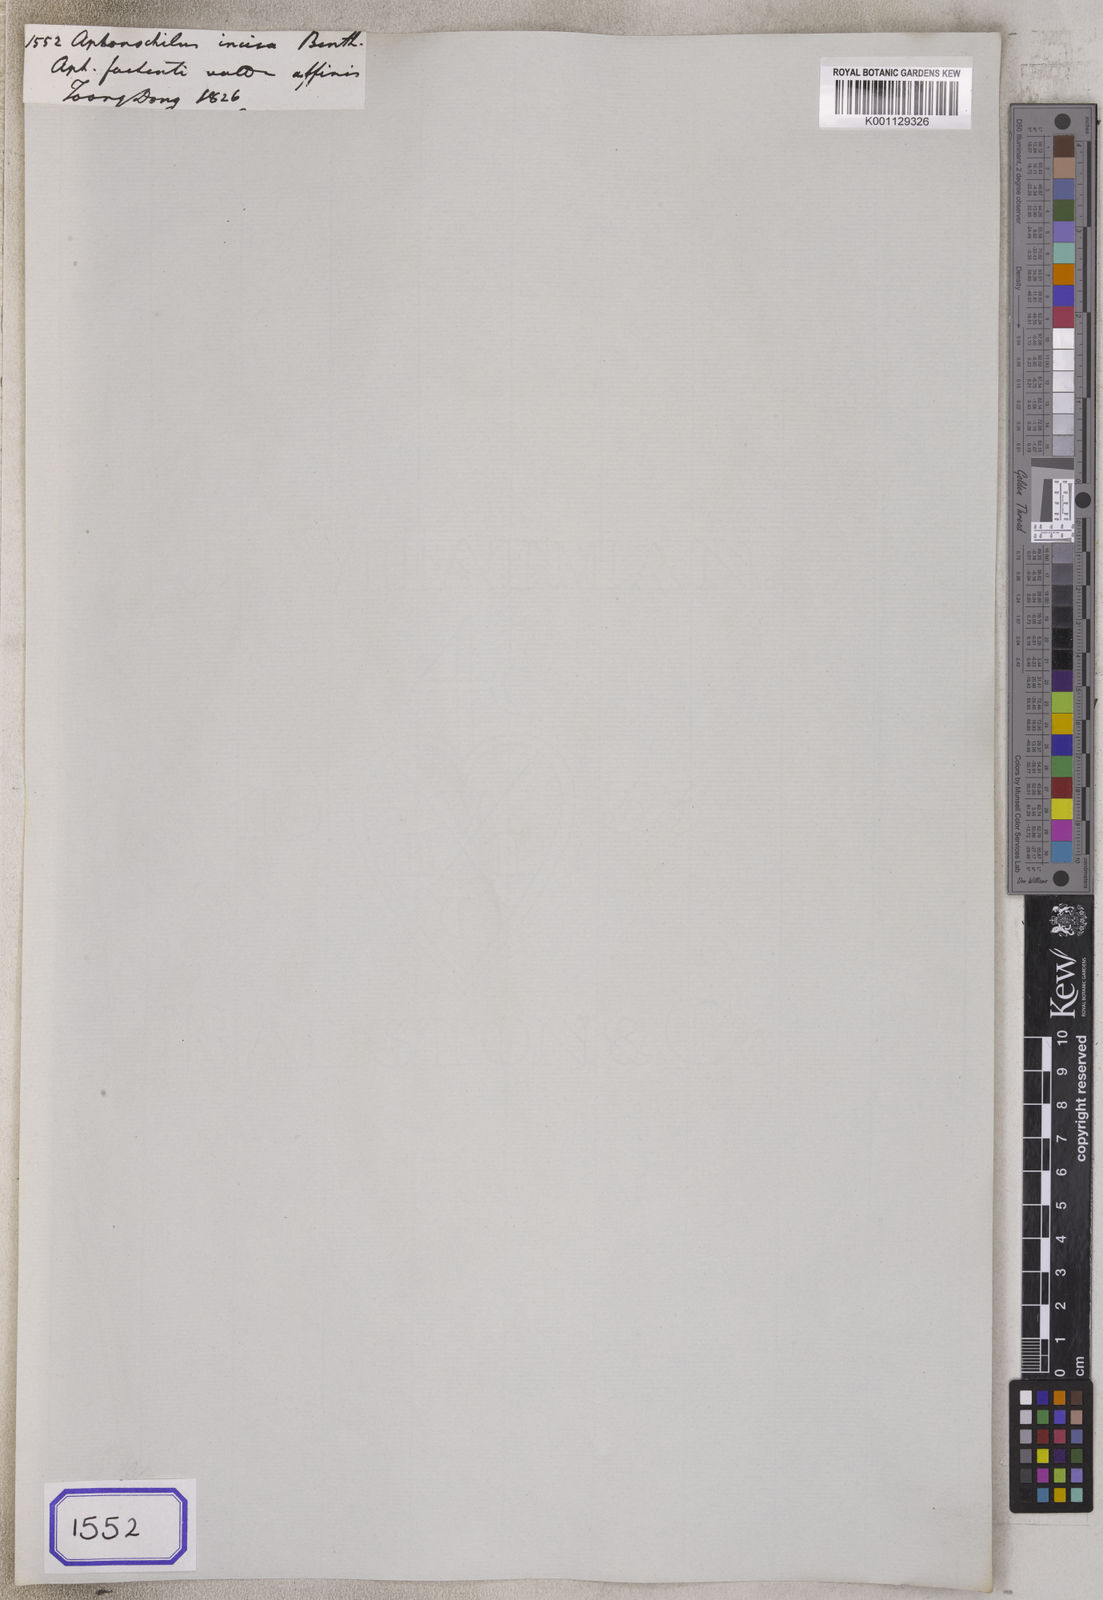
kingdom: Plantae
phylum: Tracheophyta
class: Magnoliopsida
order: Lamiales
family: Lamiaceae
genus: Elsholtzia
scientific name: Elsholtzia stachyodes
